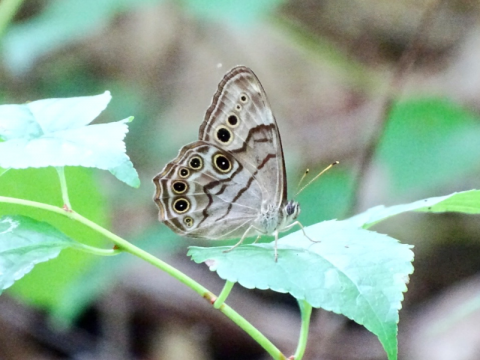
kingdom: Animalia
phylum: Arthropoda
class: Insecta
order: Lepidoptera
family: Nymphalidae
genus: Lethe
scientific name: Lethe anthedon
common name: Northern Pearly-Eye
